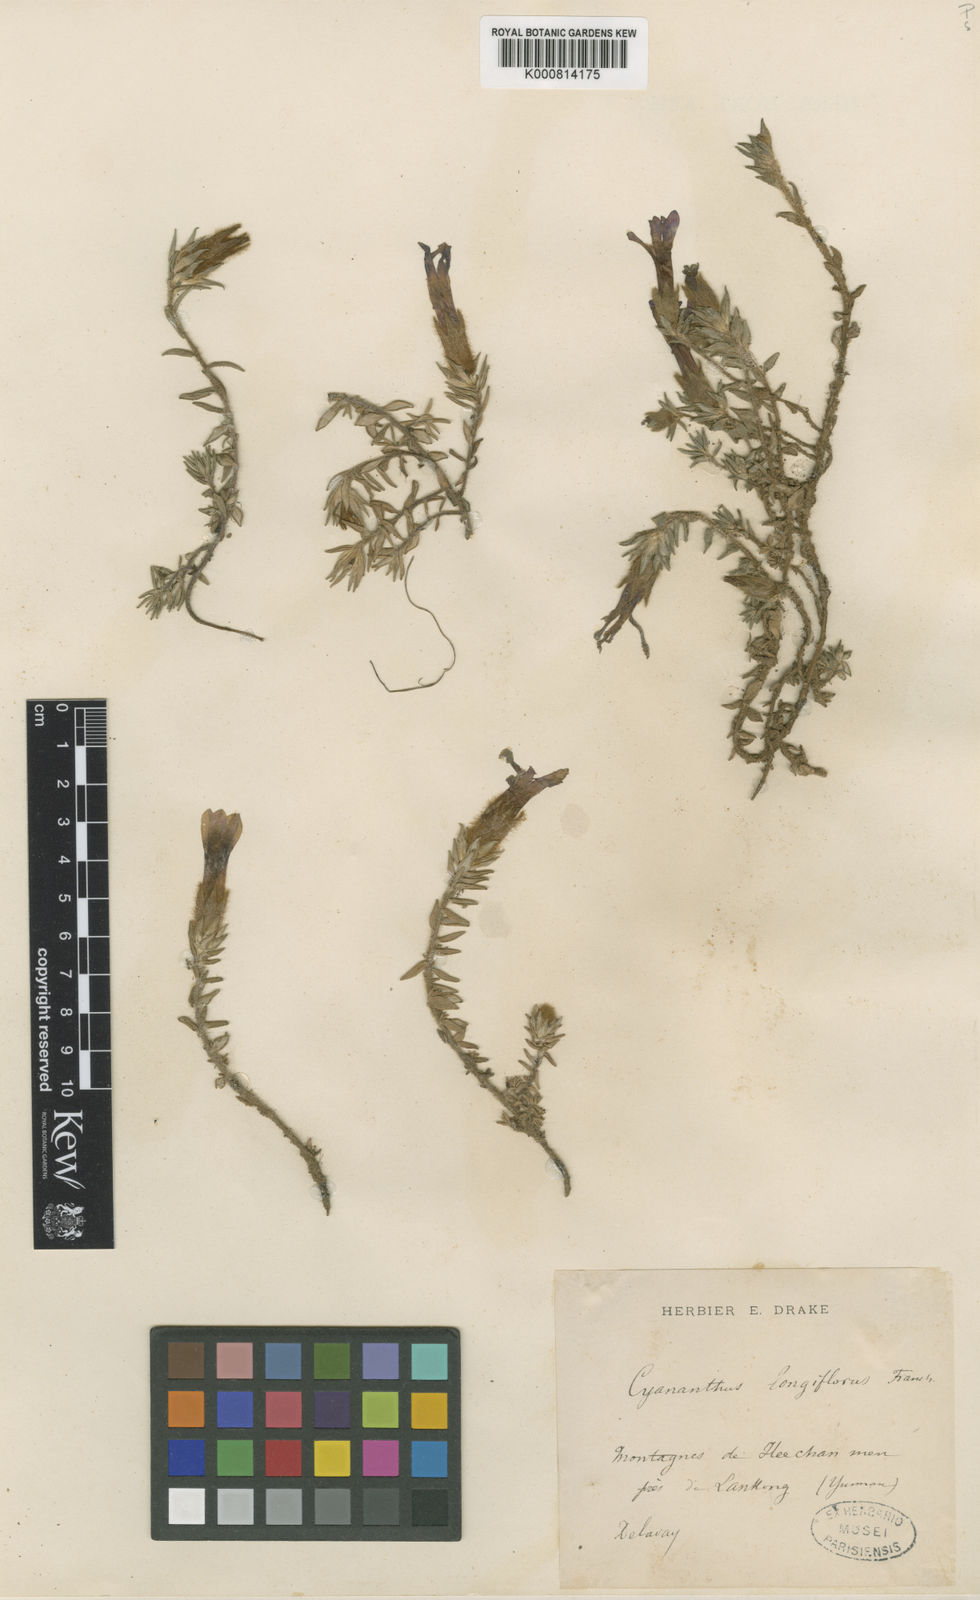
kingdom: Plantae
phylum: Tracheophyta
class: Magnoliopsida
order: Asterales
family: Campanulaceae
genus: Cyananthus
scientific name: Cyananthus longiflorus
